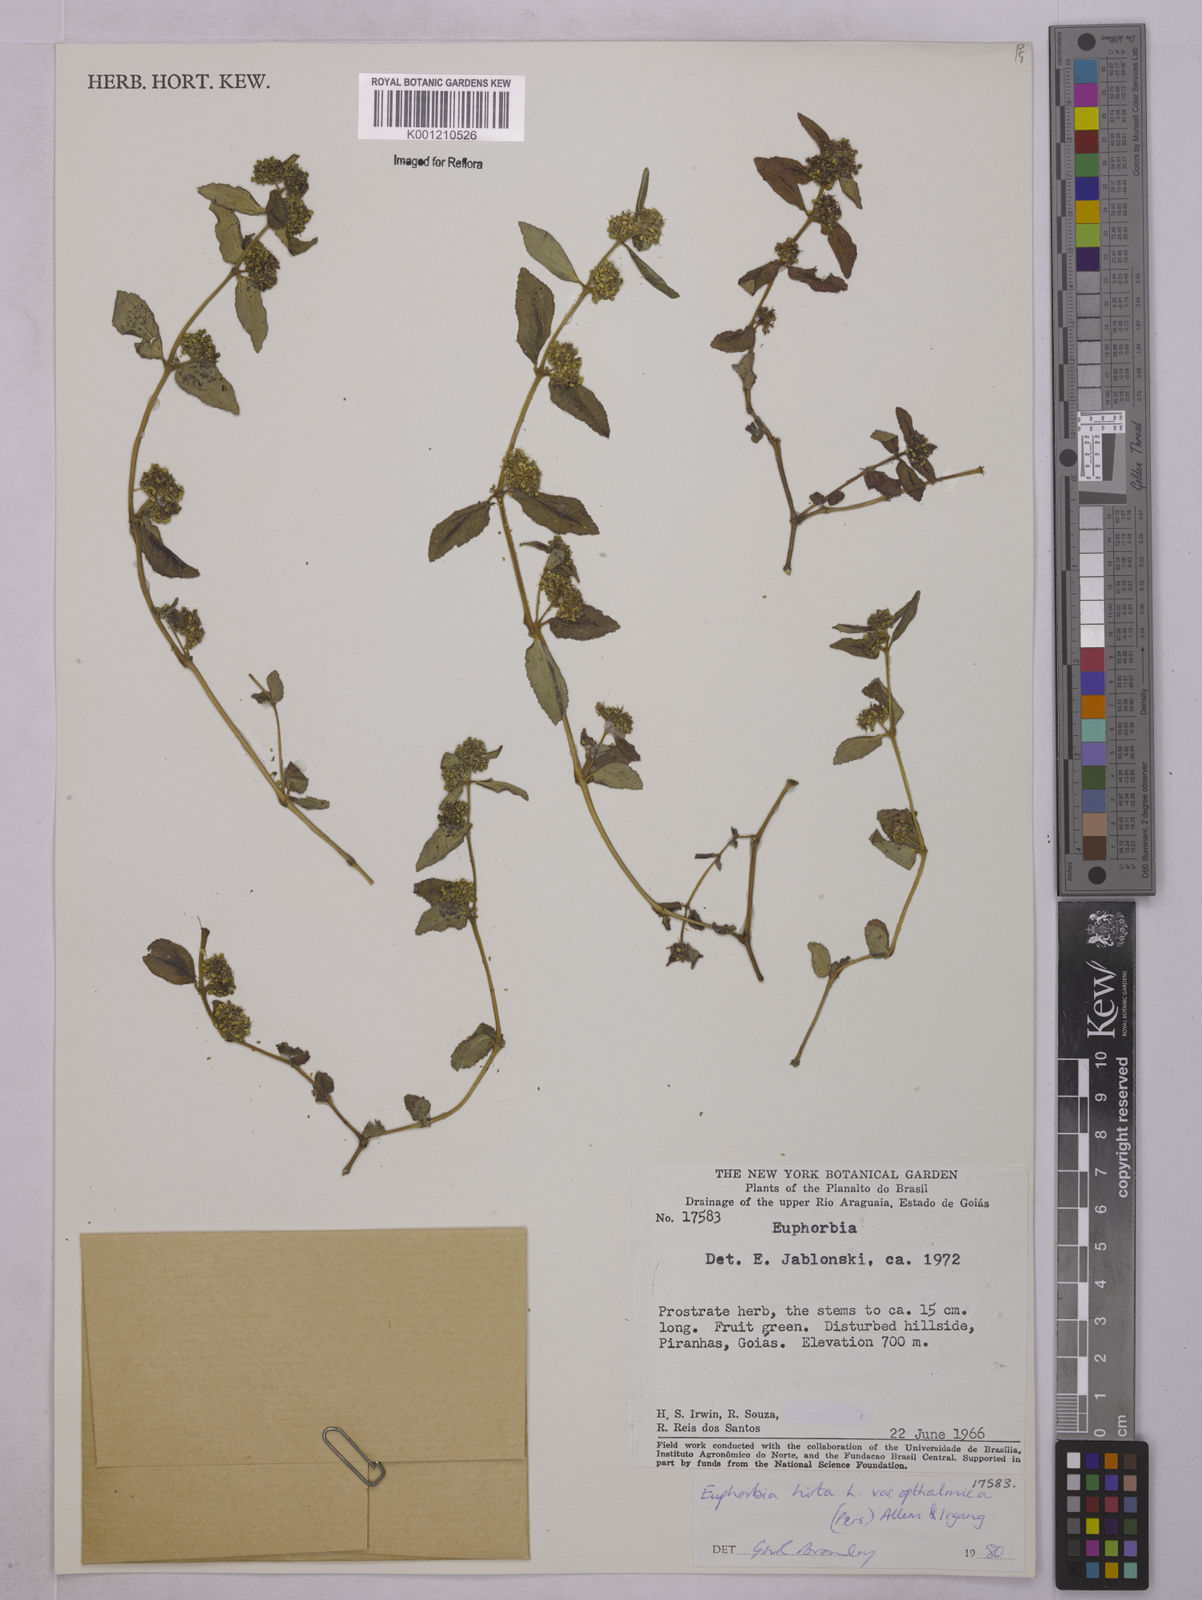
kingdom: Plantae
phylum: Tracheophyta
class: Magnoliopsida
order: Malpighiales
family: Euphorbiaceae
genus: Euphorbia
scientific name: Euphorbia ophthalmica
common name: Florida hammock sandmat
